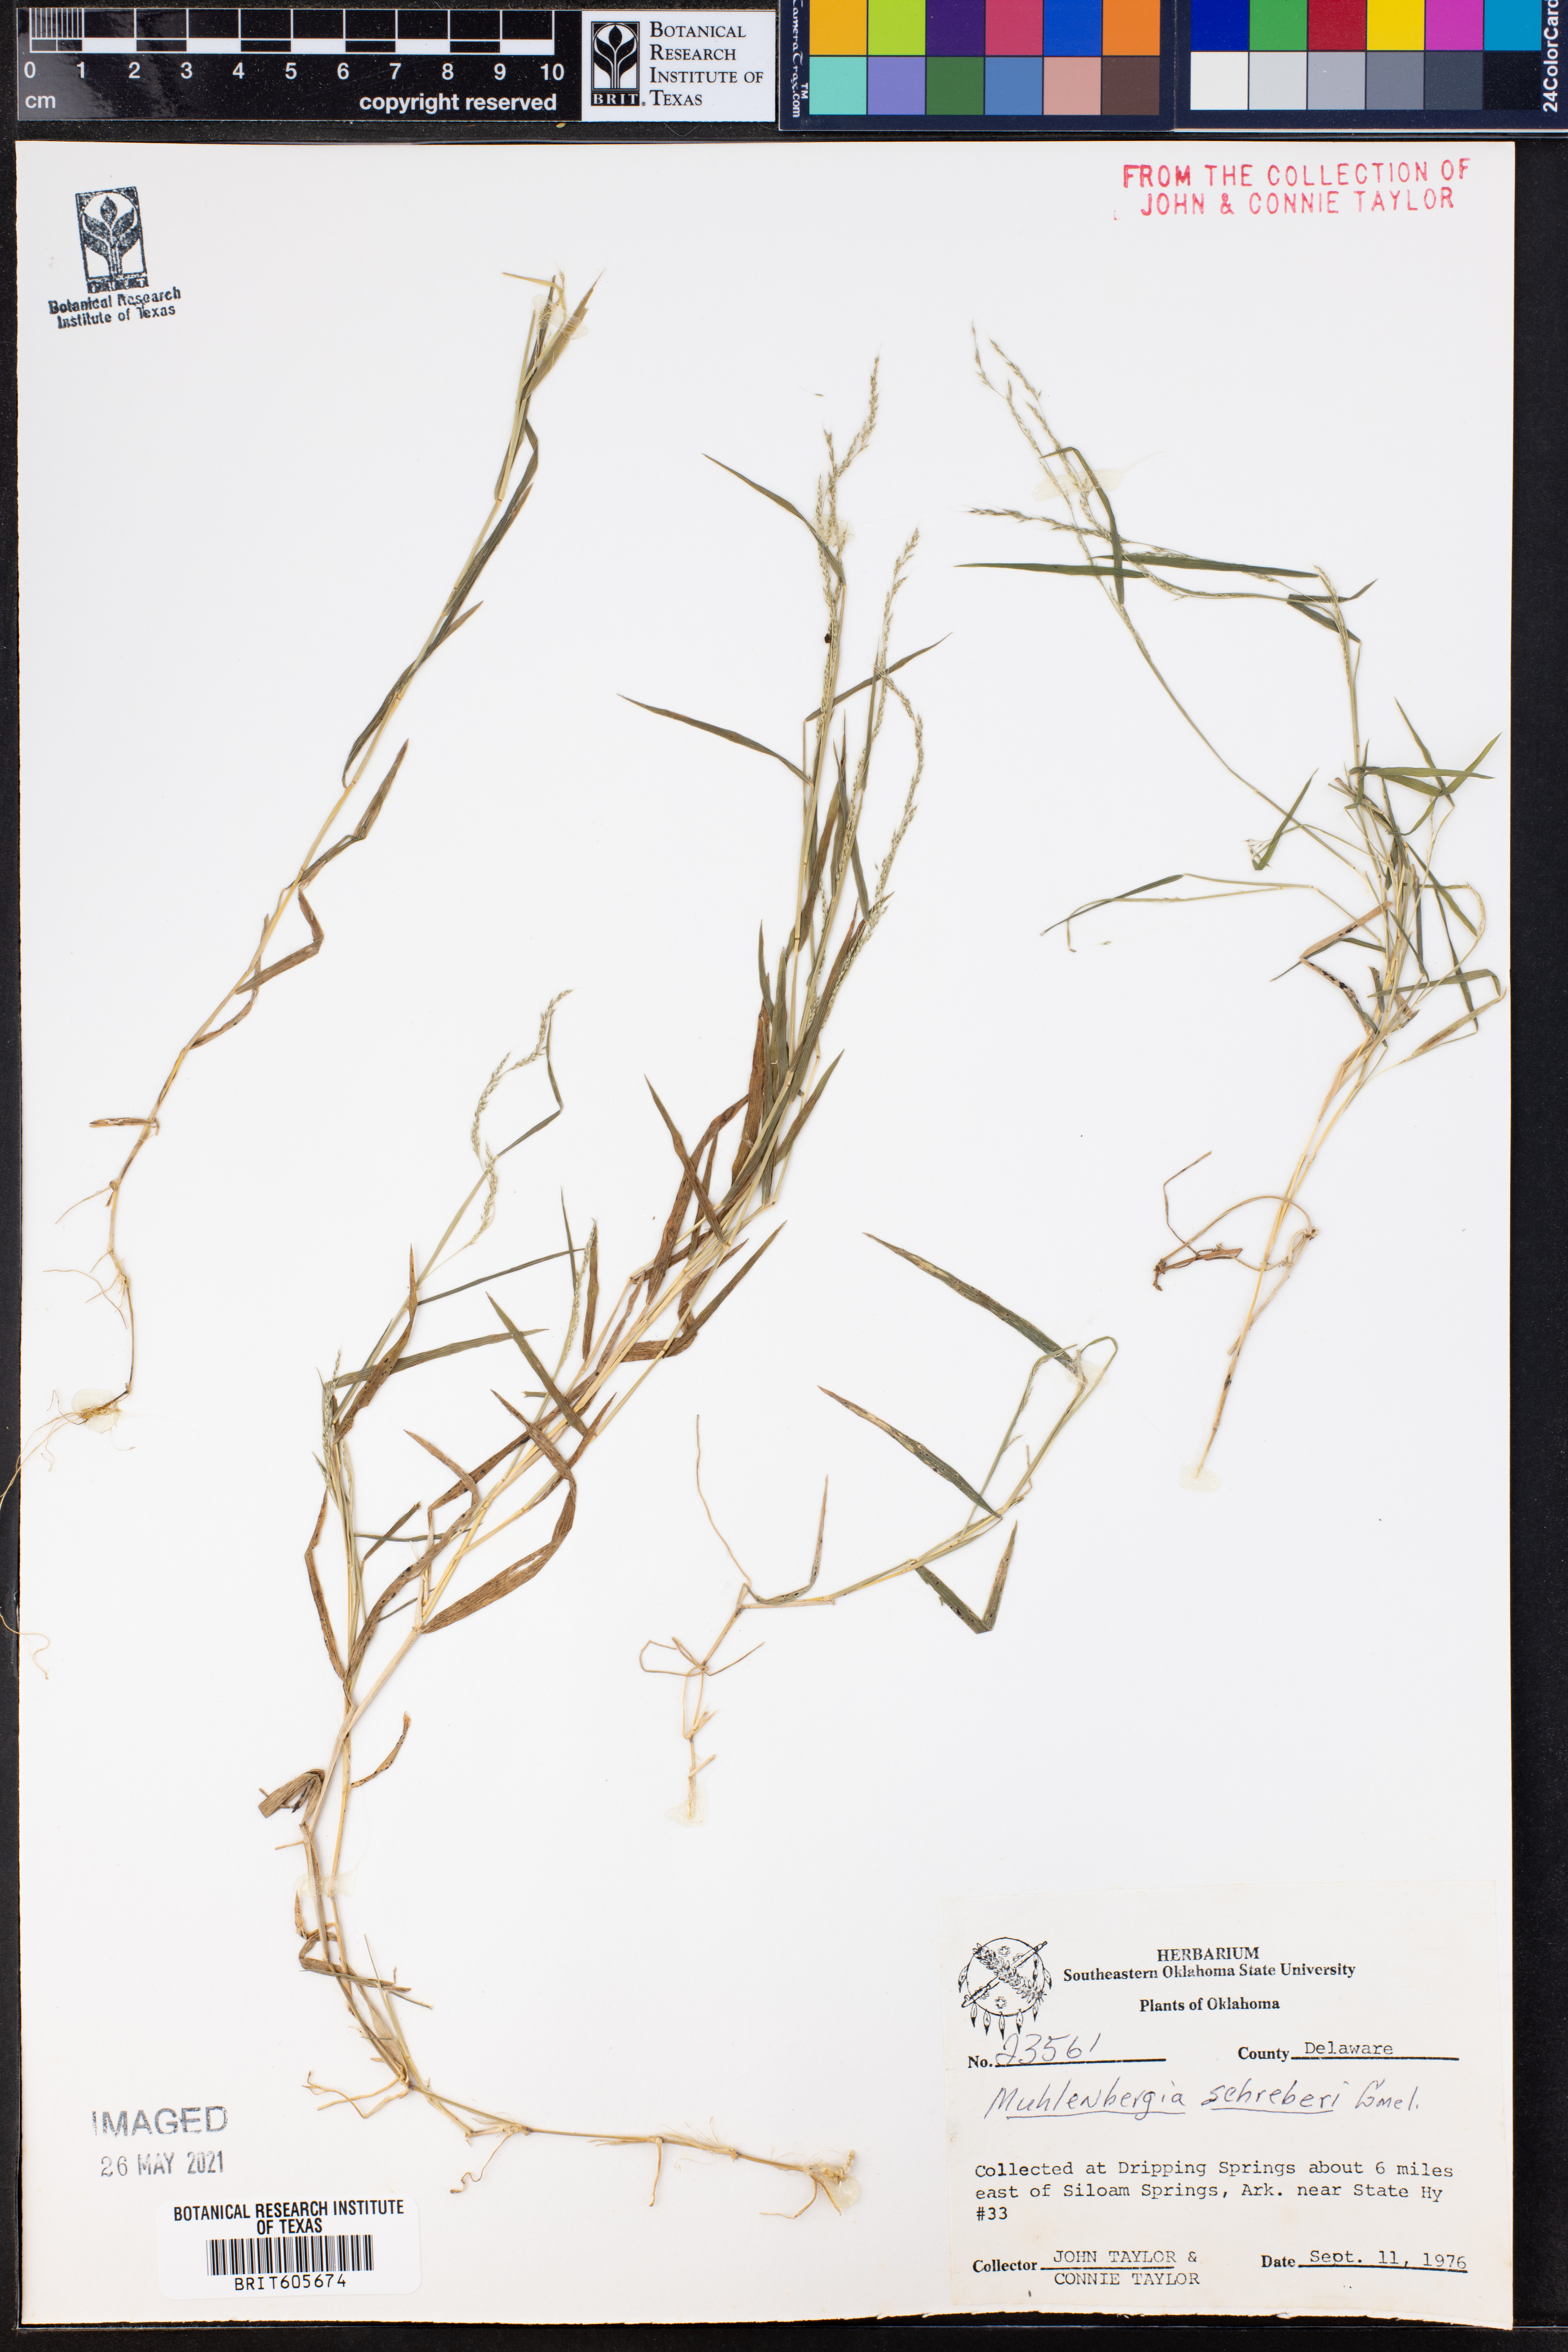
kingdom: Plantae
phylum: Tracheophyta
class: Liliopsida
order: Poales
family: Poaceae
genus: Muhlenbergia
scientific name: Muhlenbergia schreberi
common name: Nimblewill
